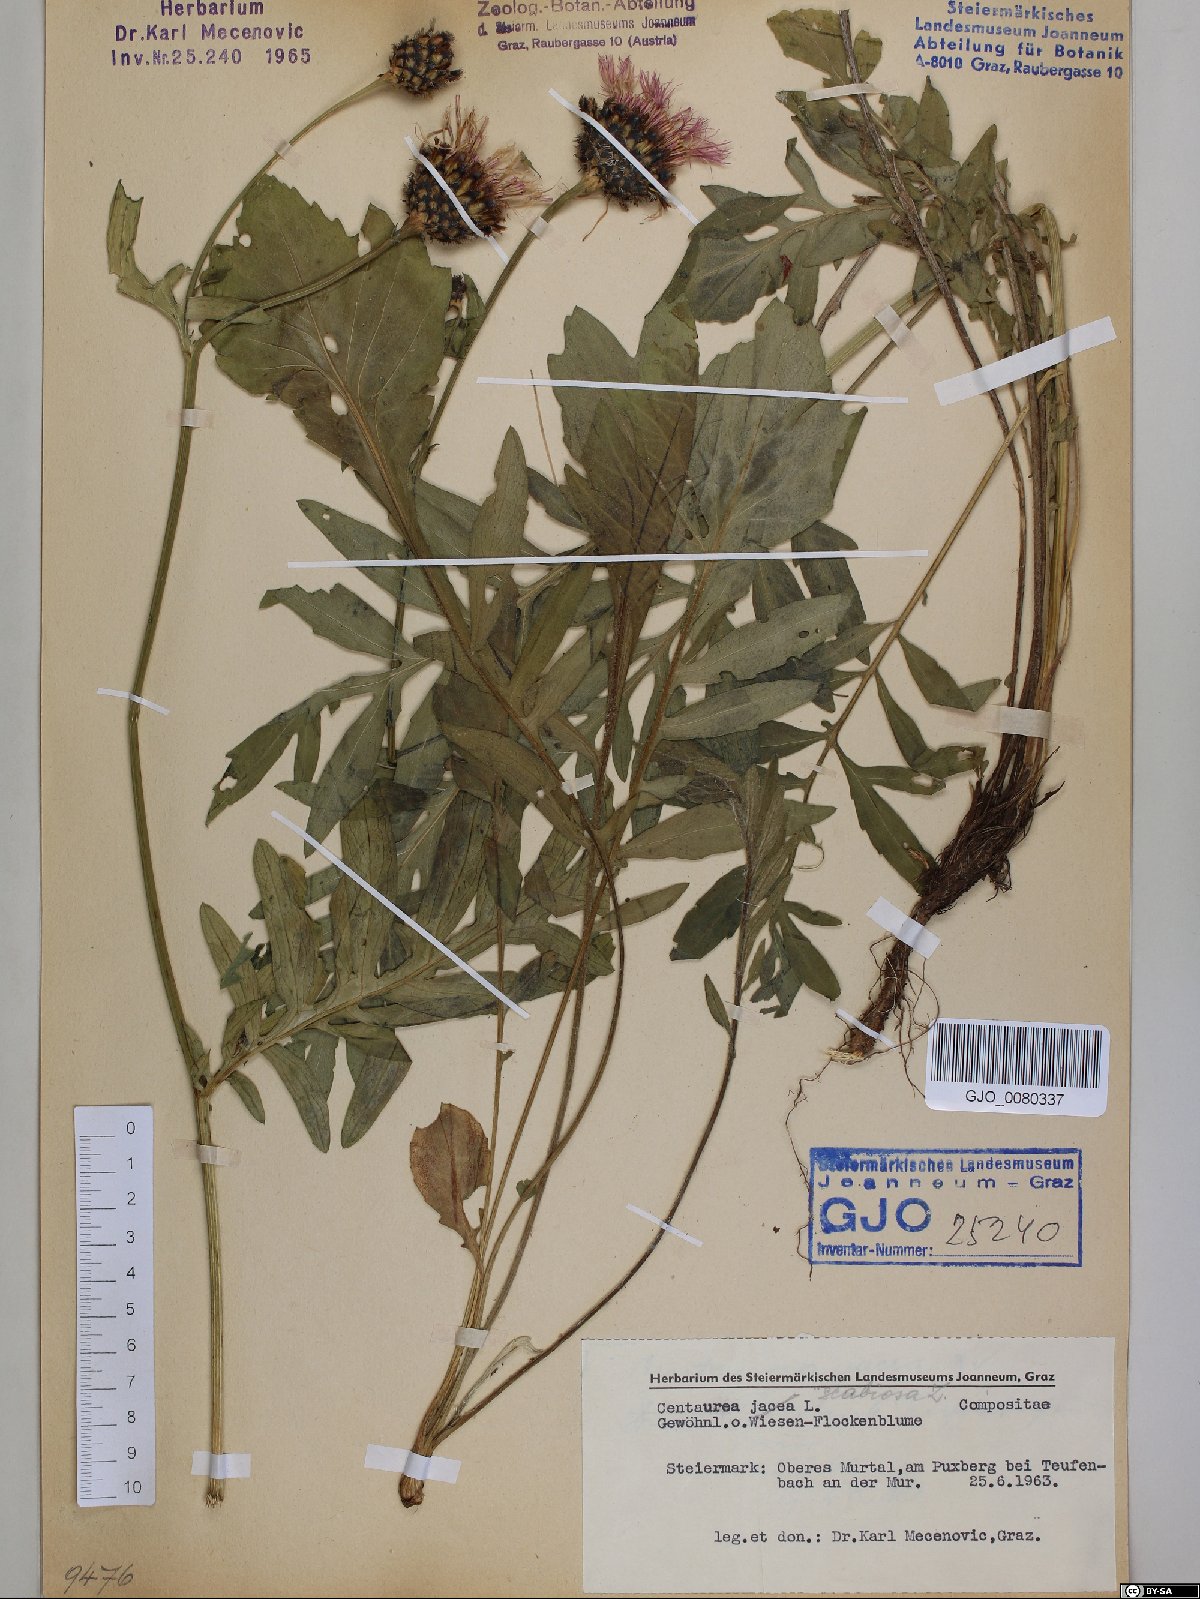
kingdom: Plantae
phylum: Tracheophyta
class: Magnoliopsida
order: Asterales
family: Asteraceae
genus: Centaurea
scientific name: Centaurea scabiosa
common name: Greater knapweed
